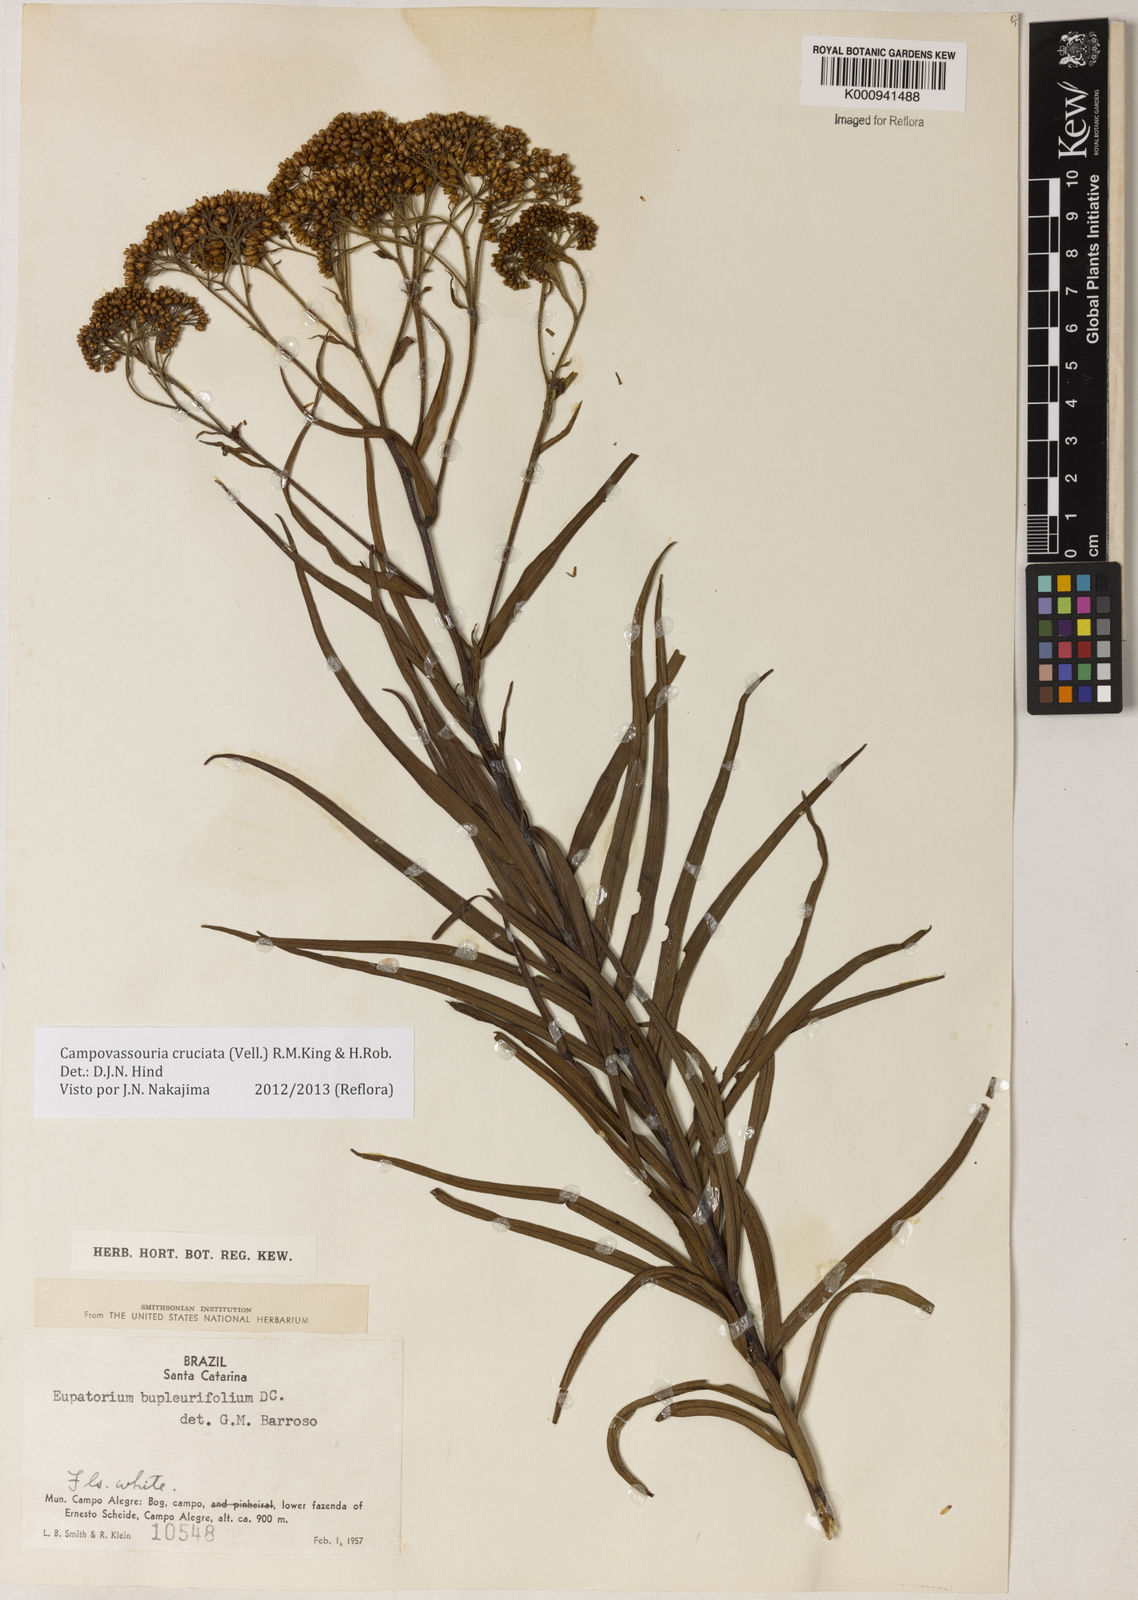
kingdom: Plantae
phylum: Tracheophyta
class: Magnoliopsida
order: Asterales
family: Asteraceae
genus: Campovassouria
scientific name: Campovassouria cruciata
